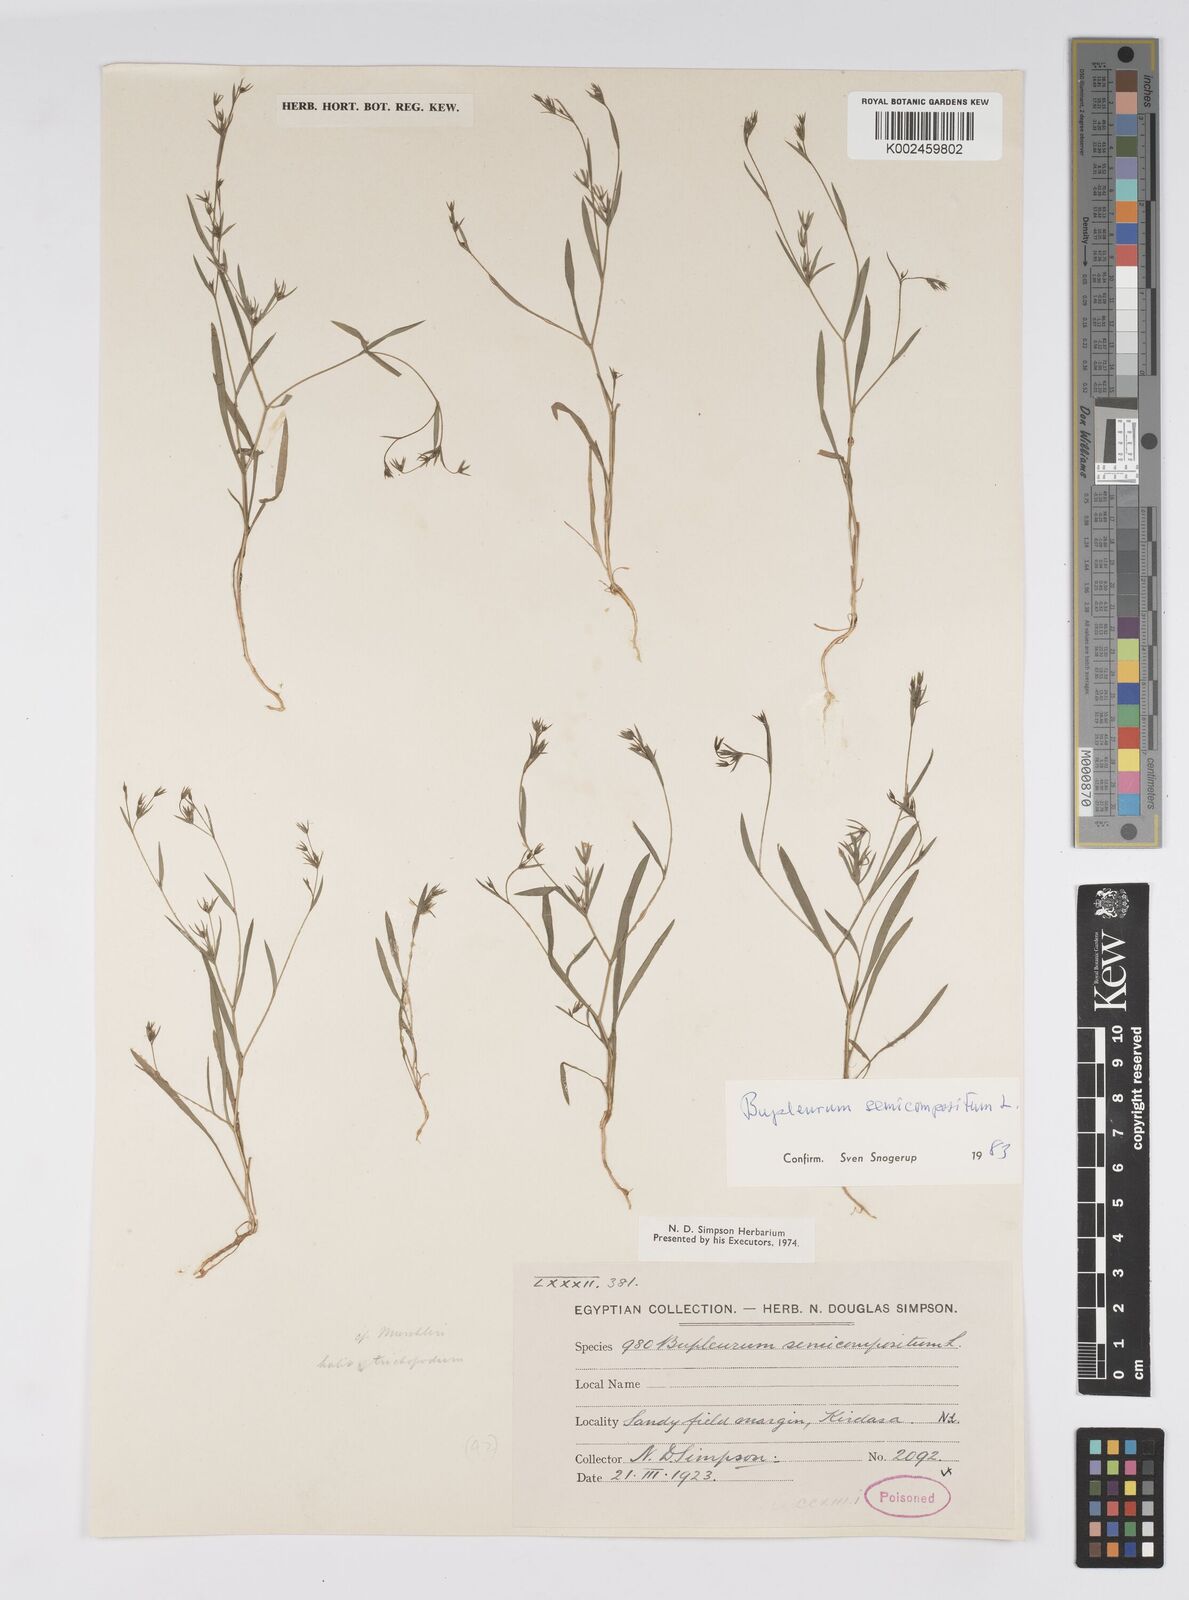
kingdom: Plantae
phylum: Tracheophyta
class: Magnoliopsida
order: Apiales
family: Apiaceae
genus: Bupleurum
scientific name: Bupleurum semicompositum
